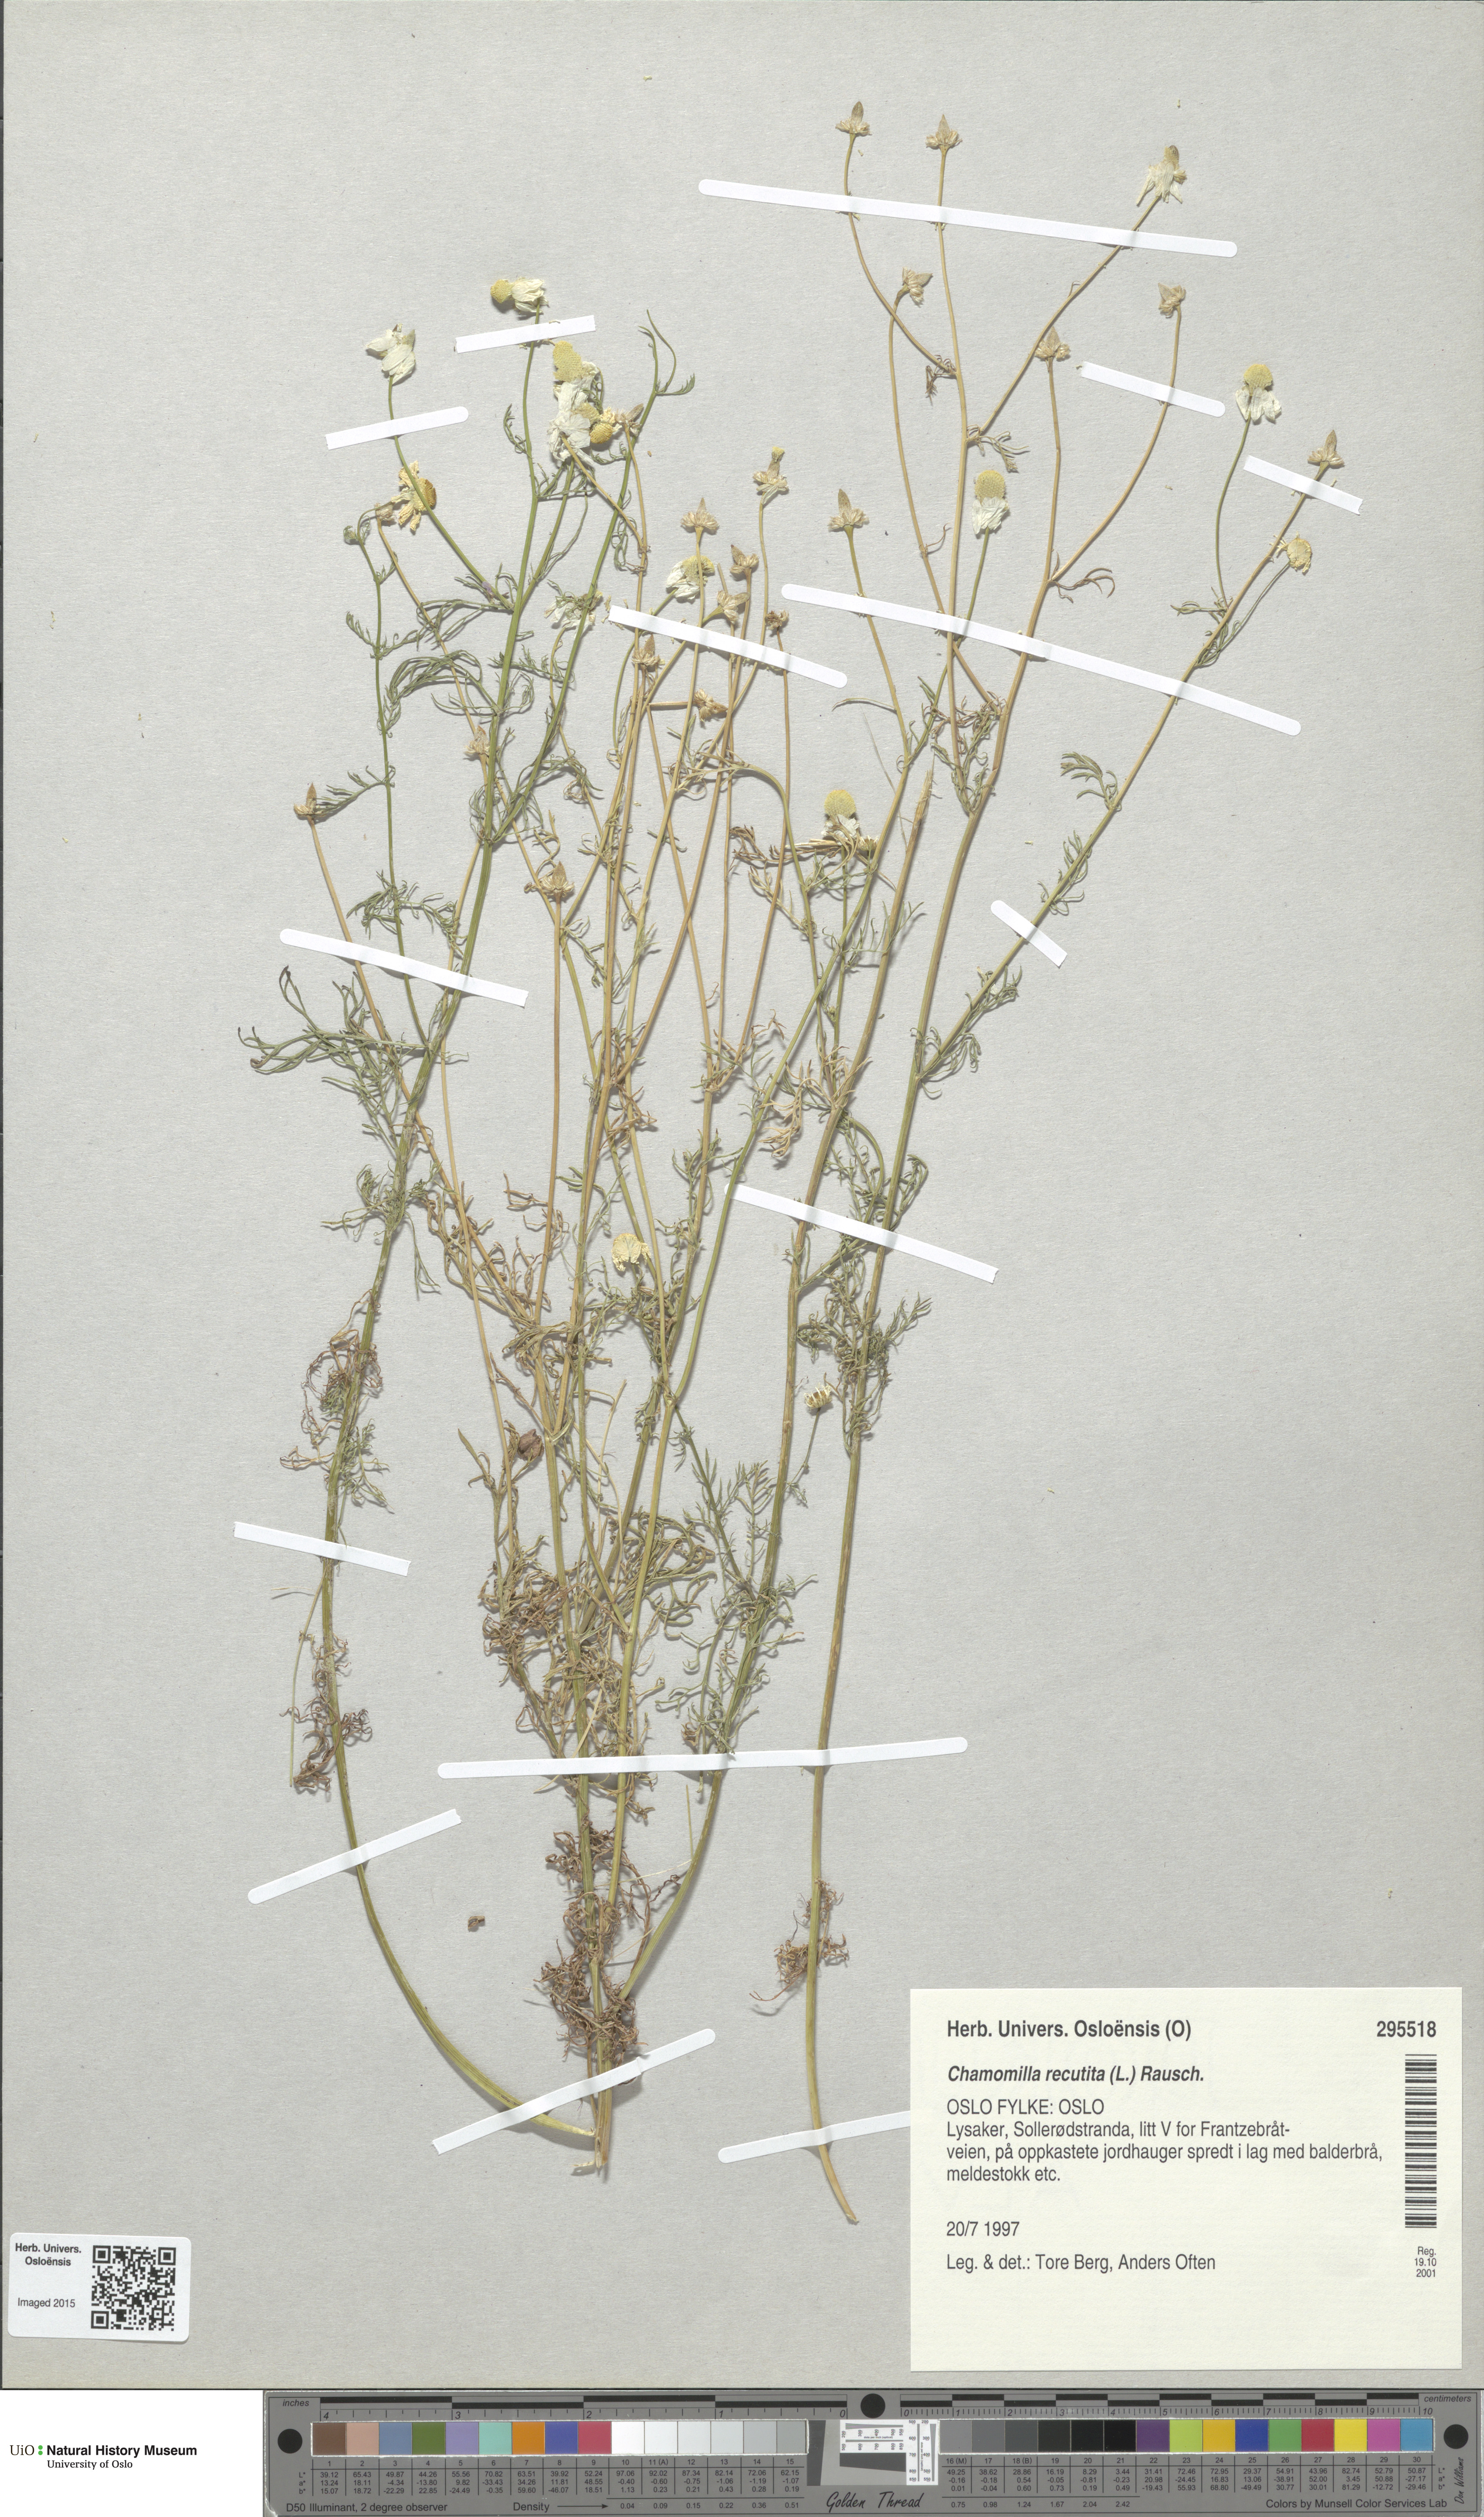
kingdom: Plantae
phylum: Tracheophyta
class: Magnoliopsida
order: Asterales
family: Asteraceae
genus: Matricaria
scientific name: Matricaria chamomilla
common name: Scented mayweed
